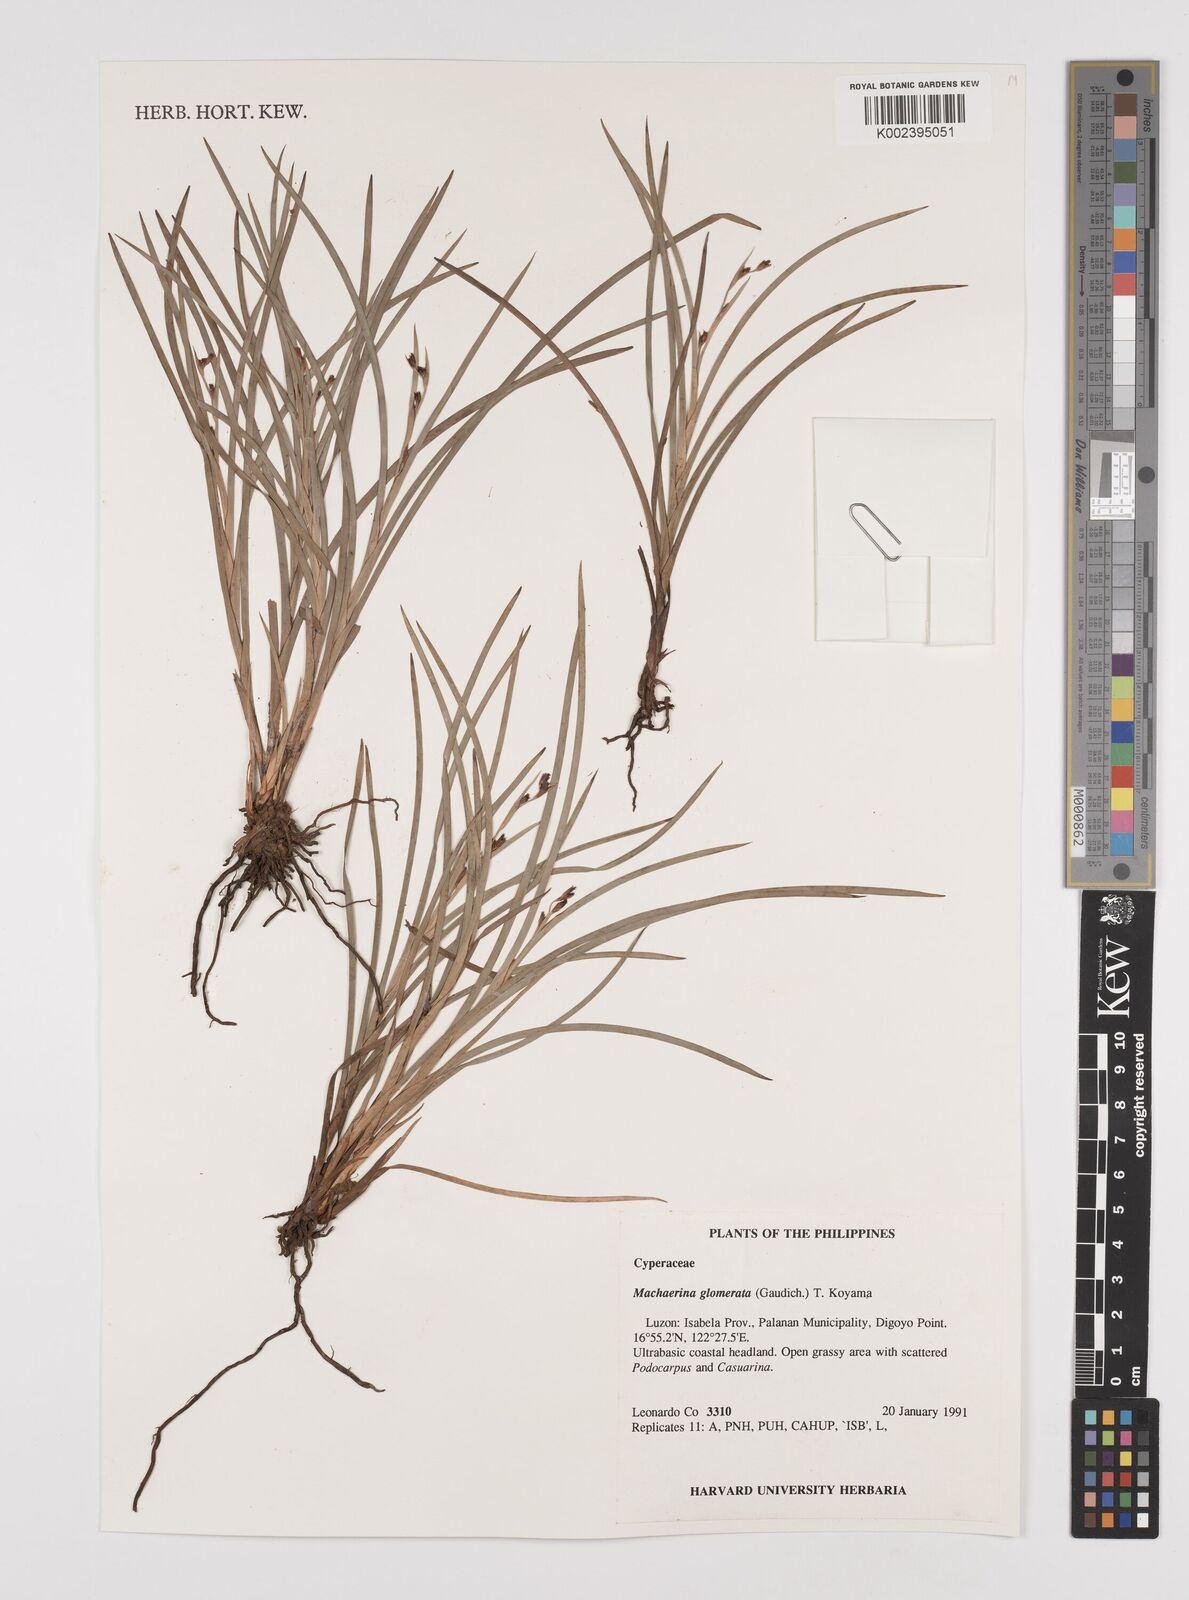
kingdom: Plantae
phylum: Tracheophyta
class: Liliopsida
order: Poales
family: Cyperaceae
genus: Machaerina
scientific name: Machaerina glomerata
